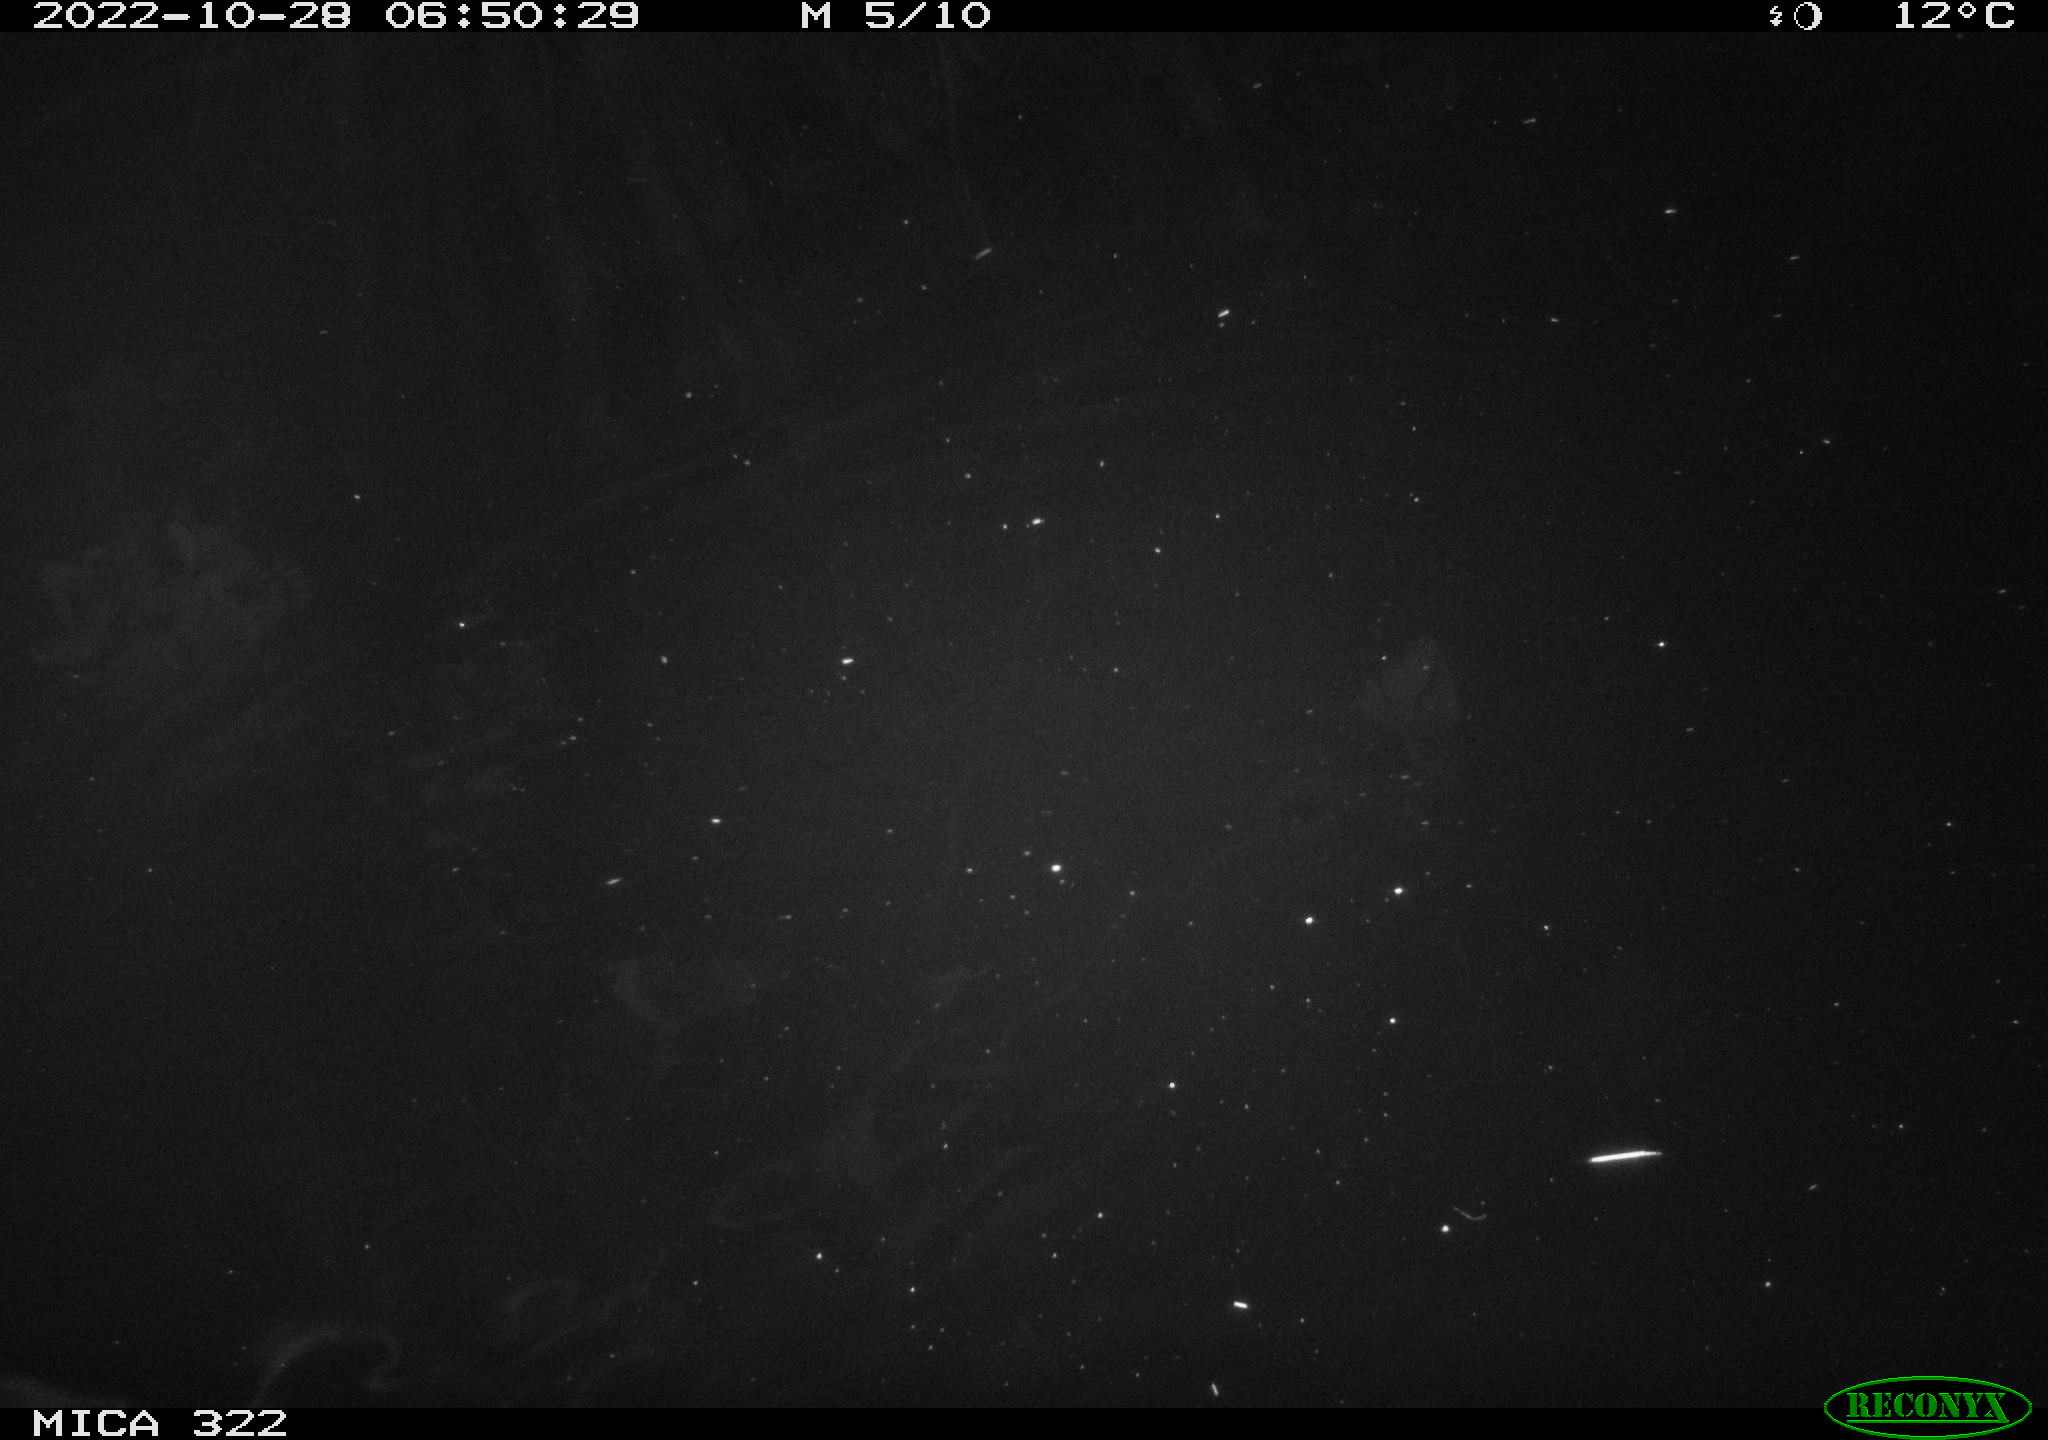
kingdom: Animalia
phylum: Chordata
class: Mammalia
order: Rodentia
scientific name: Rodentia
